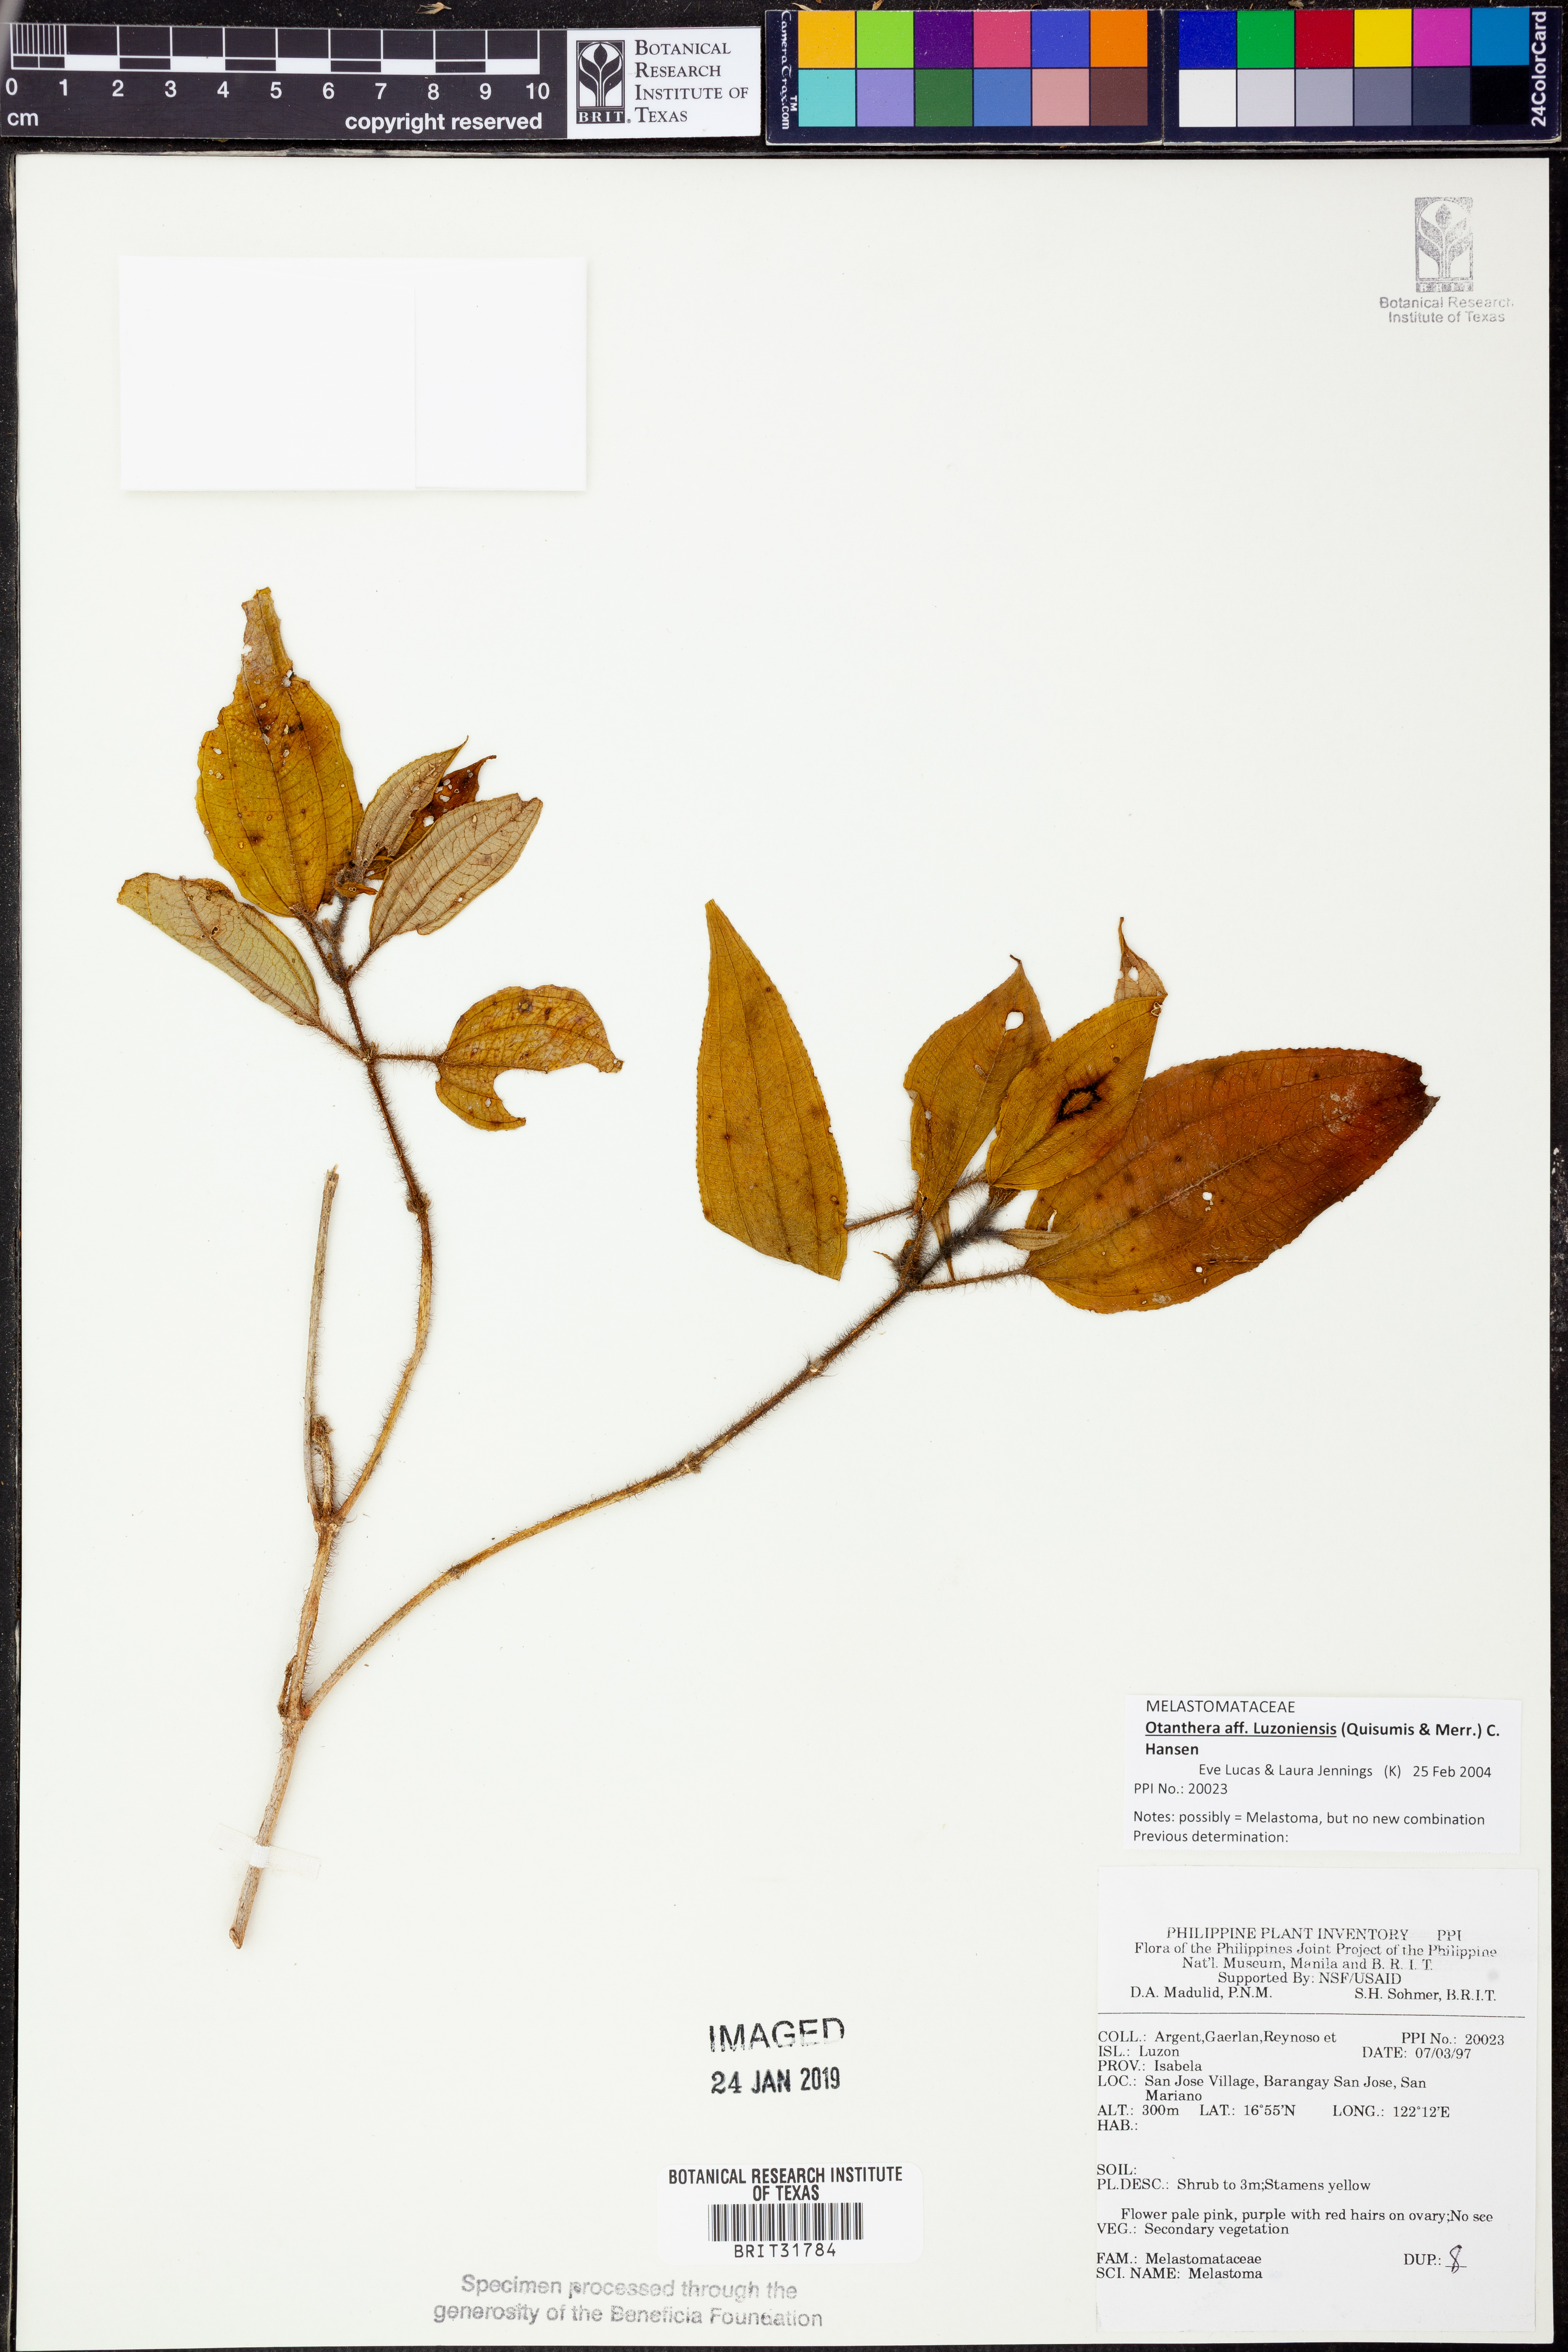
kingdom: Plantae
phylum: Tracheophyta
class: Magnoliopsida
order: Myrtales
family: Melastomataceae
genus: Melastoma
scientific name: Melastoma
